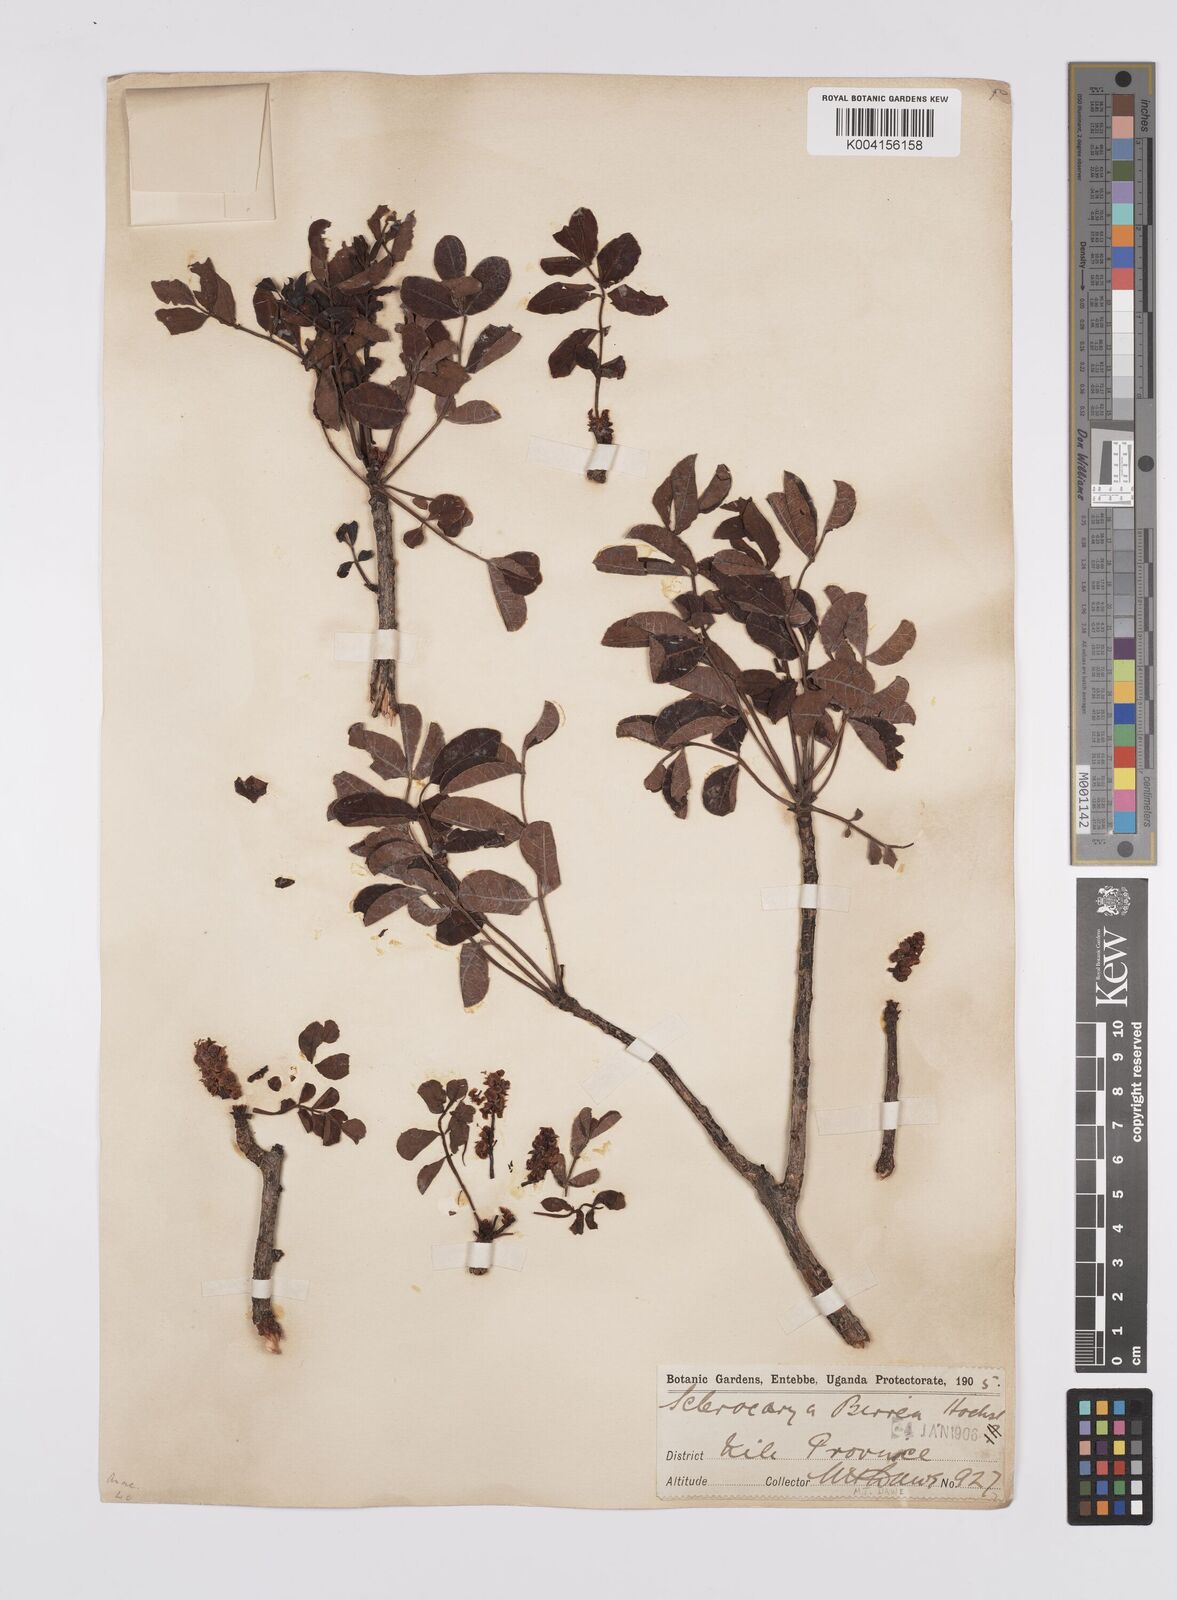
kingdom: Plantae
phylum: Tracheophyta
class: Magnoliopsida
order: Sapindales
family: Anacardiaceae
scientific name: Anacardiaceae
